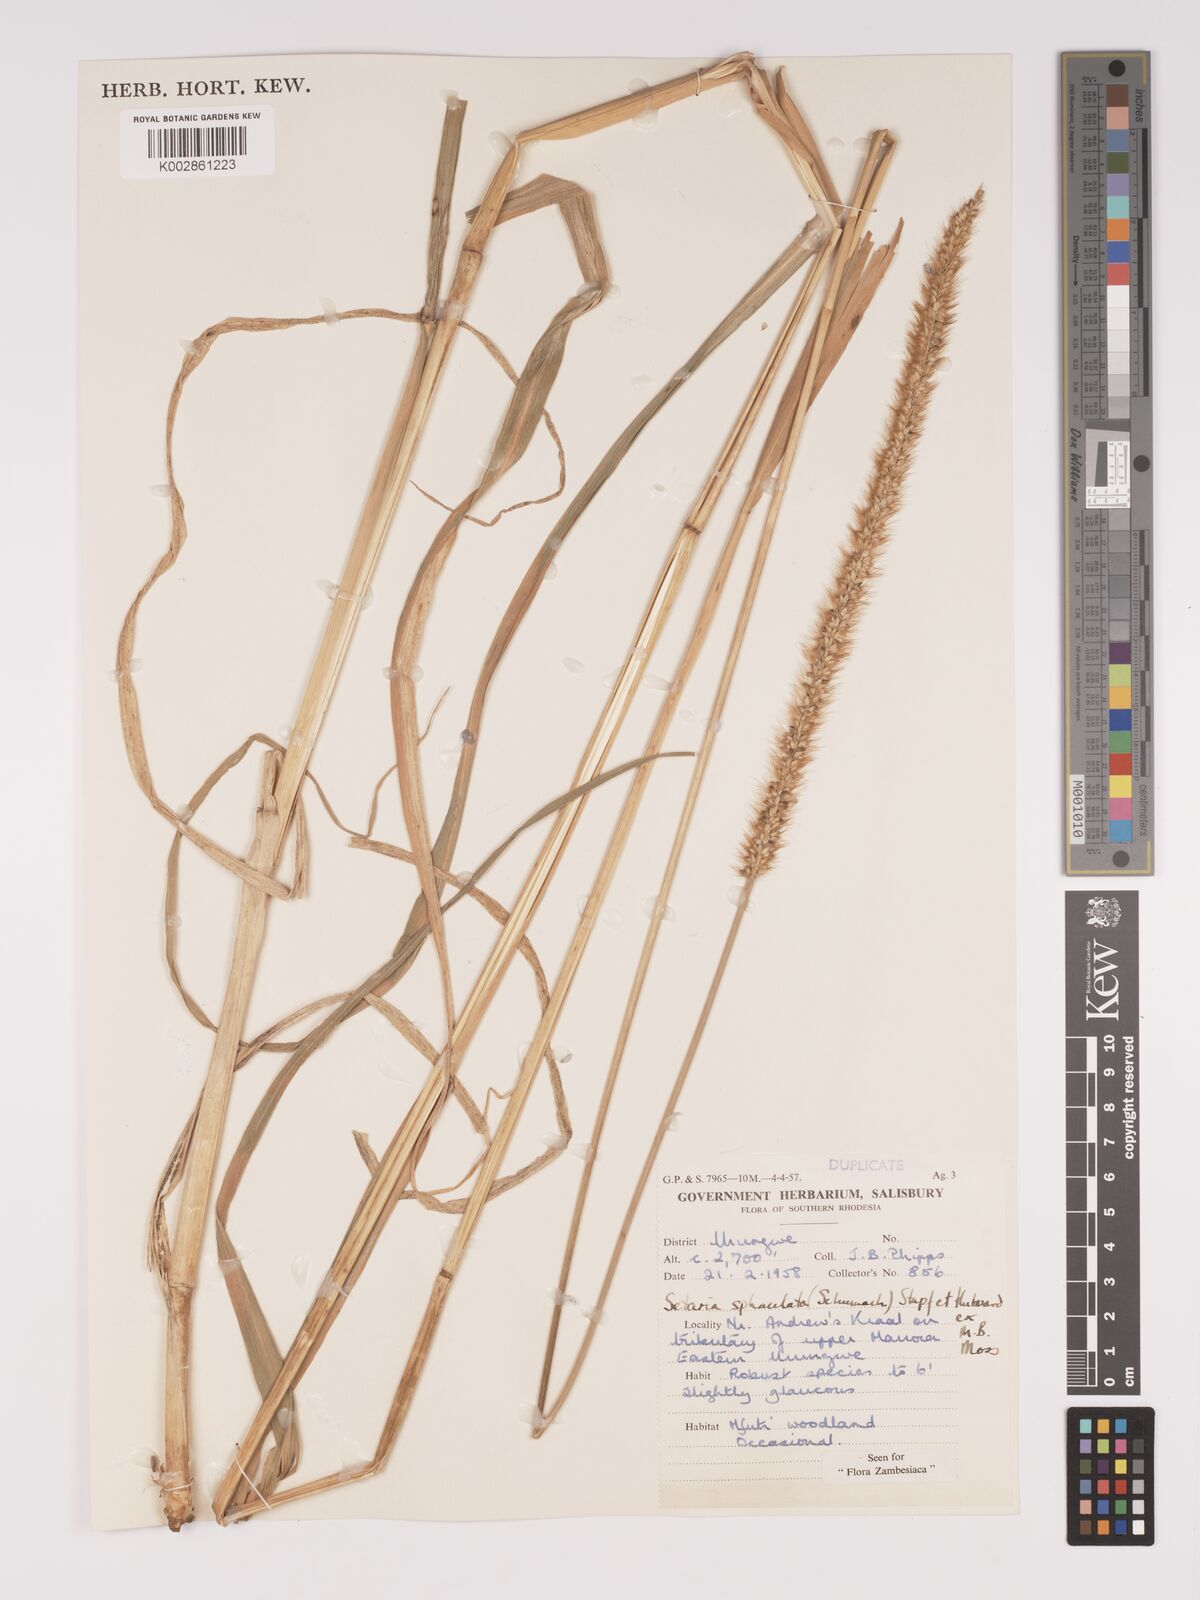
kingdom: Plantae
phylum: Tracheophyta
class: Liliopsida
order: Poales
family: Poaceae
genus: Setaria
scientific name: Setaria sphacelata
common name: African bristlegrass
